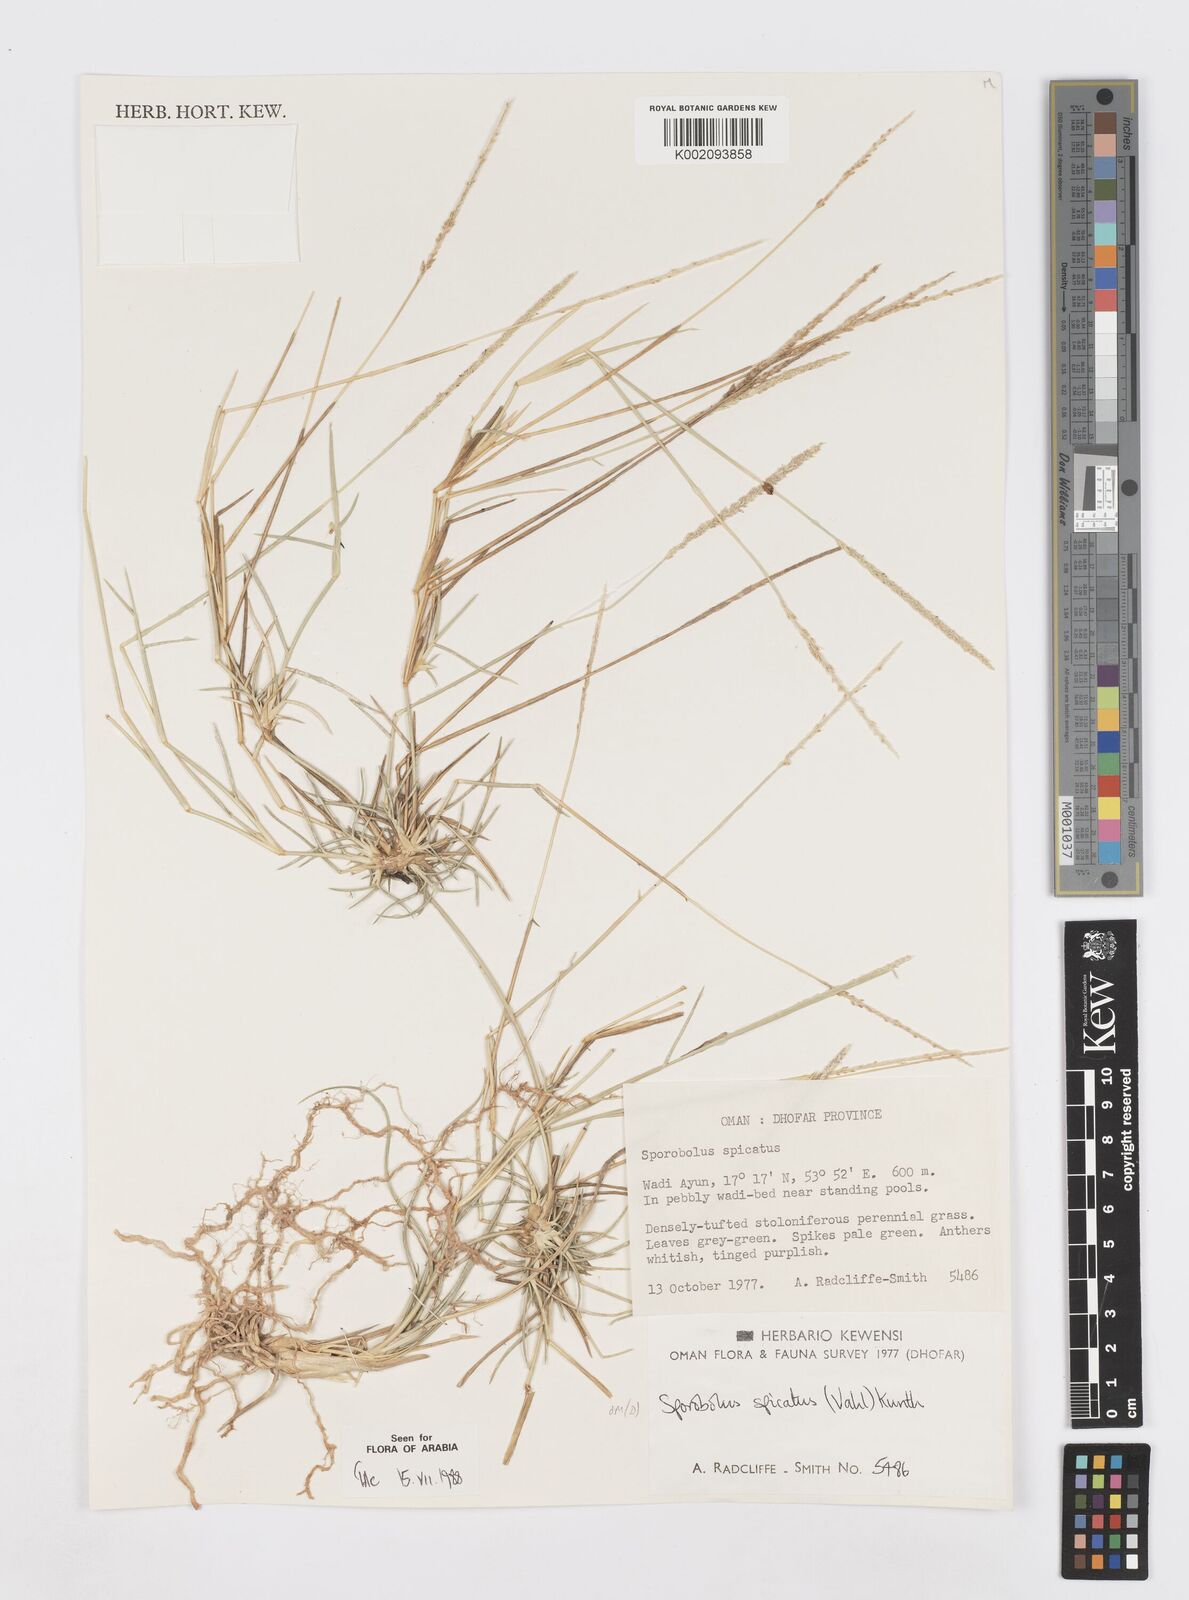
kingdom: Plantae
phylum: Tracheophyta
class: Liliopsida
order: Poales
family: Poaceae
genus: Sporobolus
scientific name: Sporobolus spicatus
